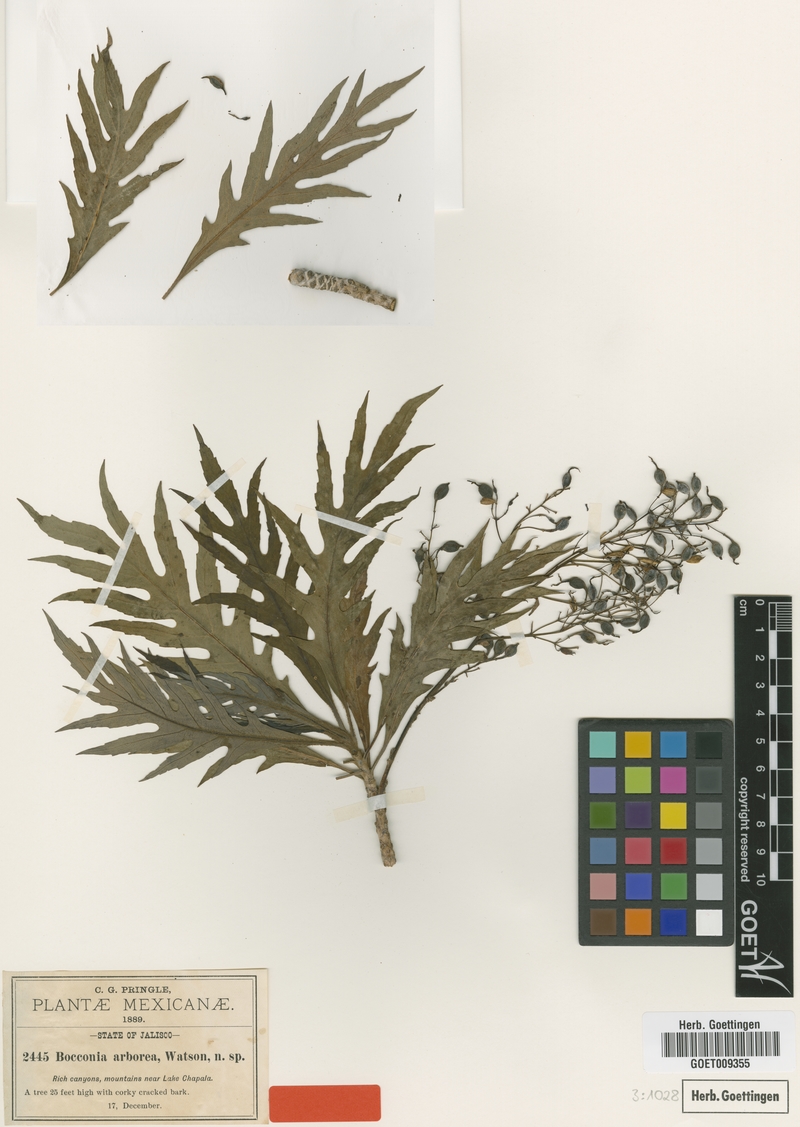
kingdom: Plantae
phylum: Tracheophyta
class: Magnoliopsida
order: Ranunculales
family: Papaveraceae
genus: Bocconia
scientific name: Bocconia arborea
